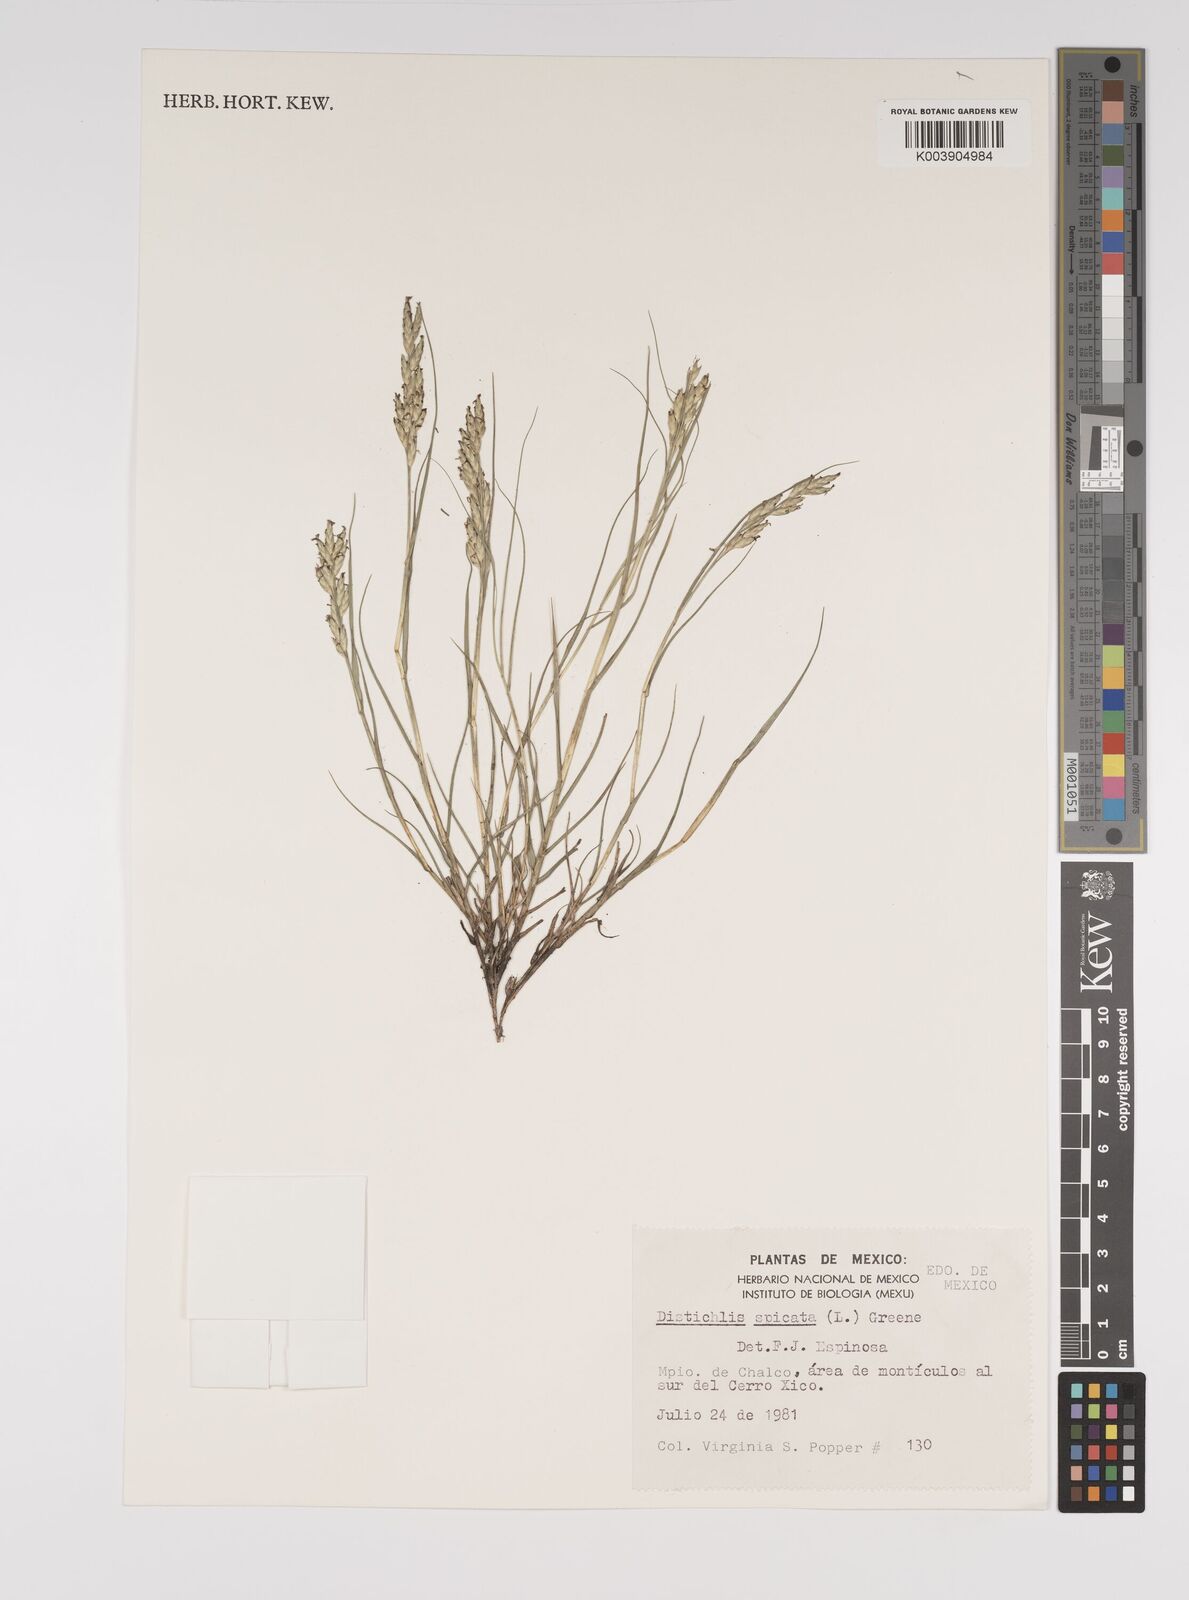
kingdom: Plantae
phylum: Tracheophyta
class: Liliopsida
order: Poales
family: Poaceae
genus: Distichlis
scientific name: Distichlis spicata
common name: Saltgrass
